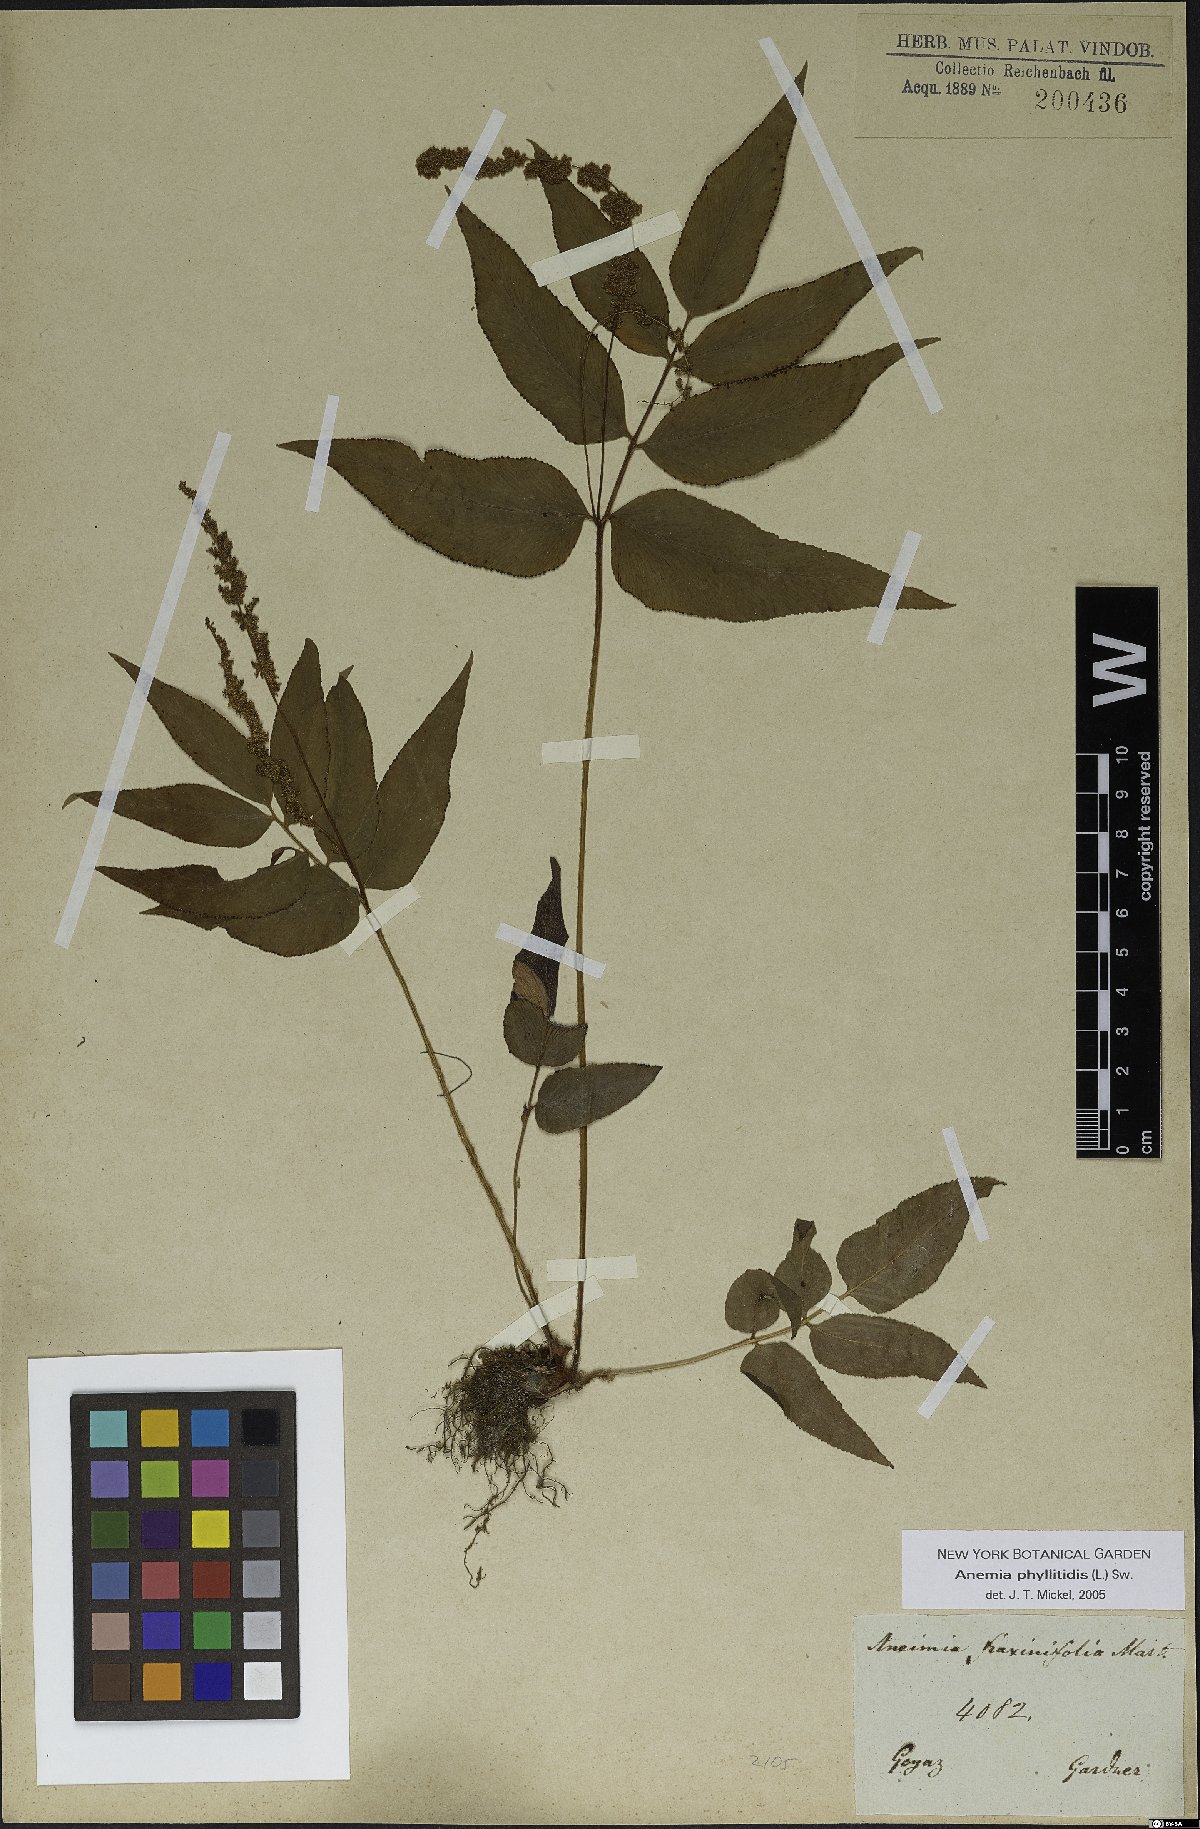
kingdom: Plantae
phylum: Tracheophyta
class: Polypodiopsida
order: Schizaeales
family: Anemiaceae
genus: Anemia
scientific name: Anemia phyllitidis
